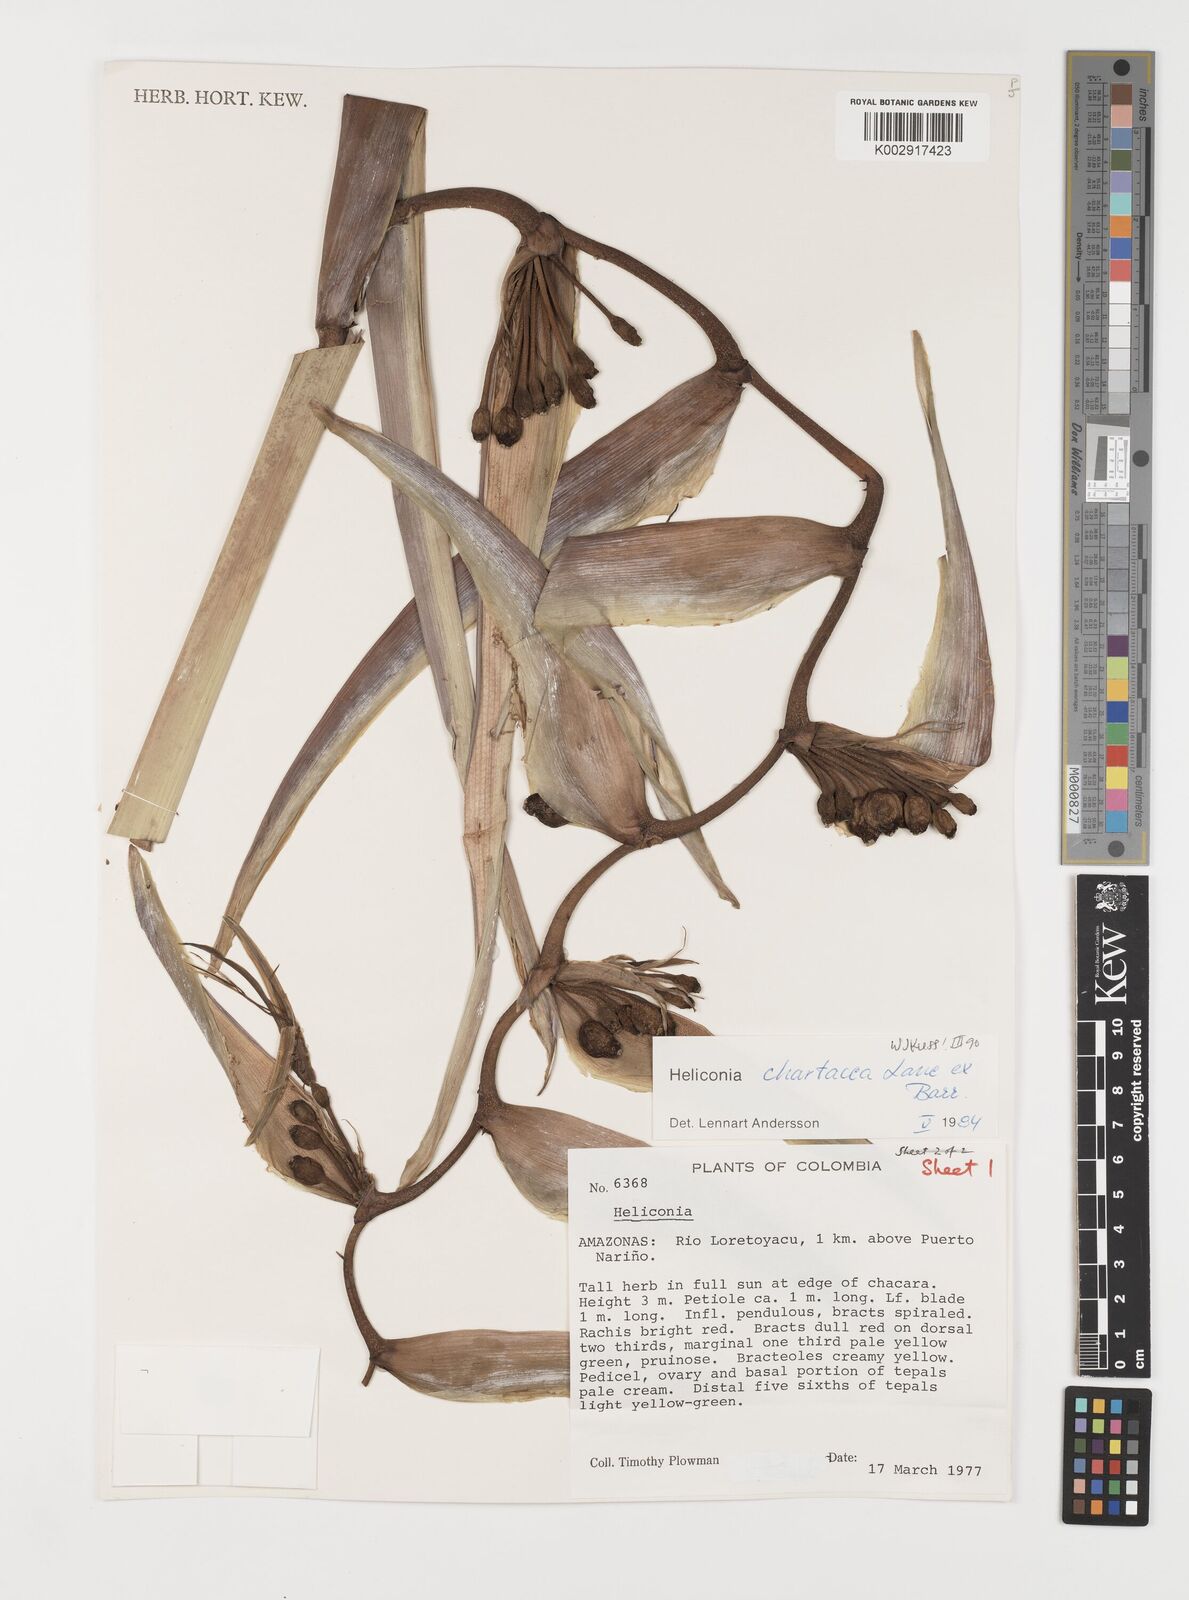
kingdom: Plantae
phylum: Tracheophyta
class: Liliopsida
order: Zingiberales
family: Heliconiaceae
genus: Heliconia
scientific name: Heliconia chartacea
